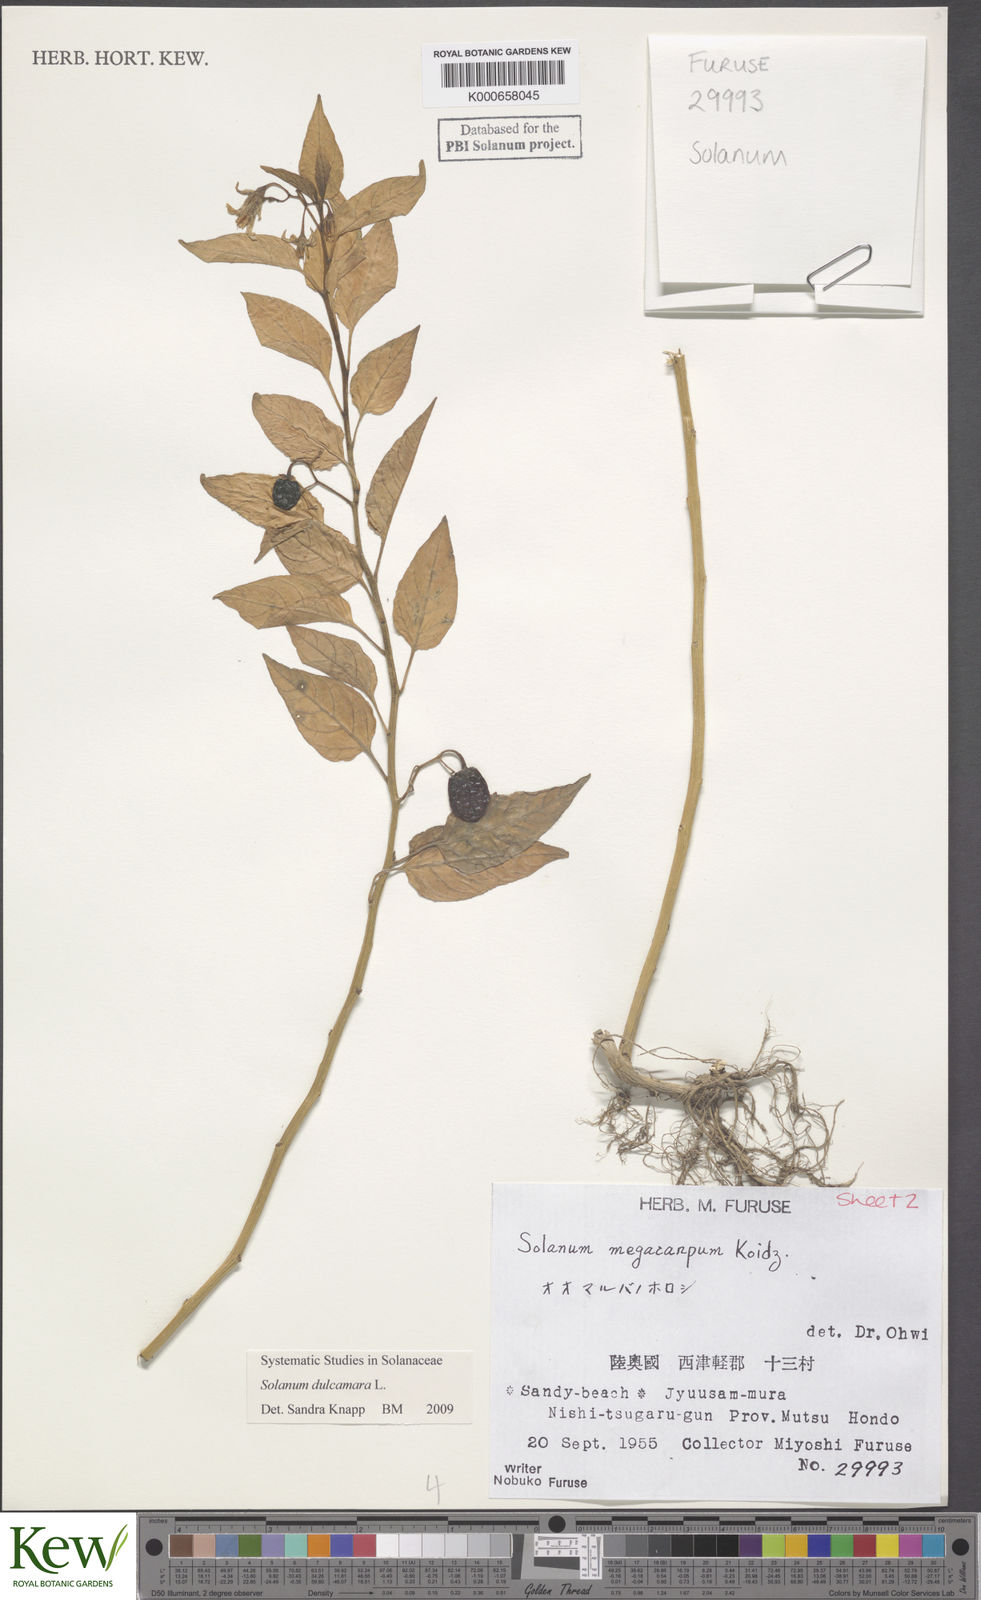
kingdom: Plantae
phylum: Tracheophyta
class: Magnoliopsida
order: Solanales
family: Solanaceae
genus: Solanum
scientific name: Solanum dulcamara
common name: Climbing nightshade
